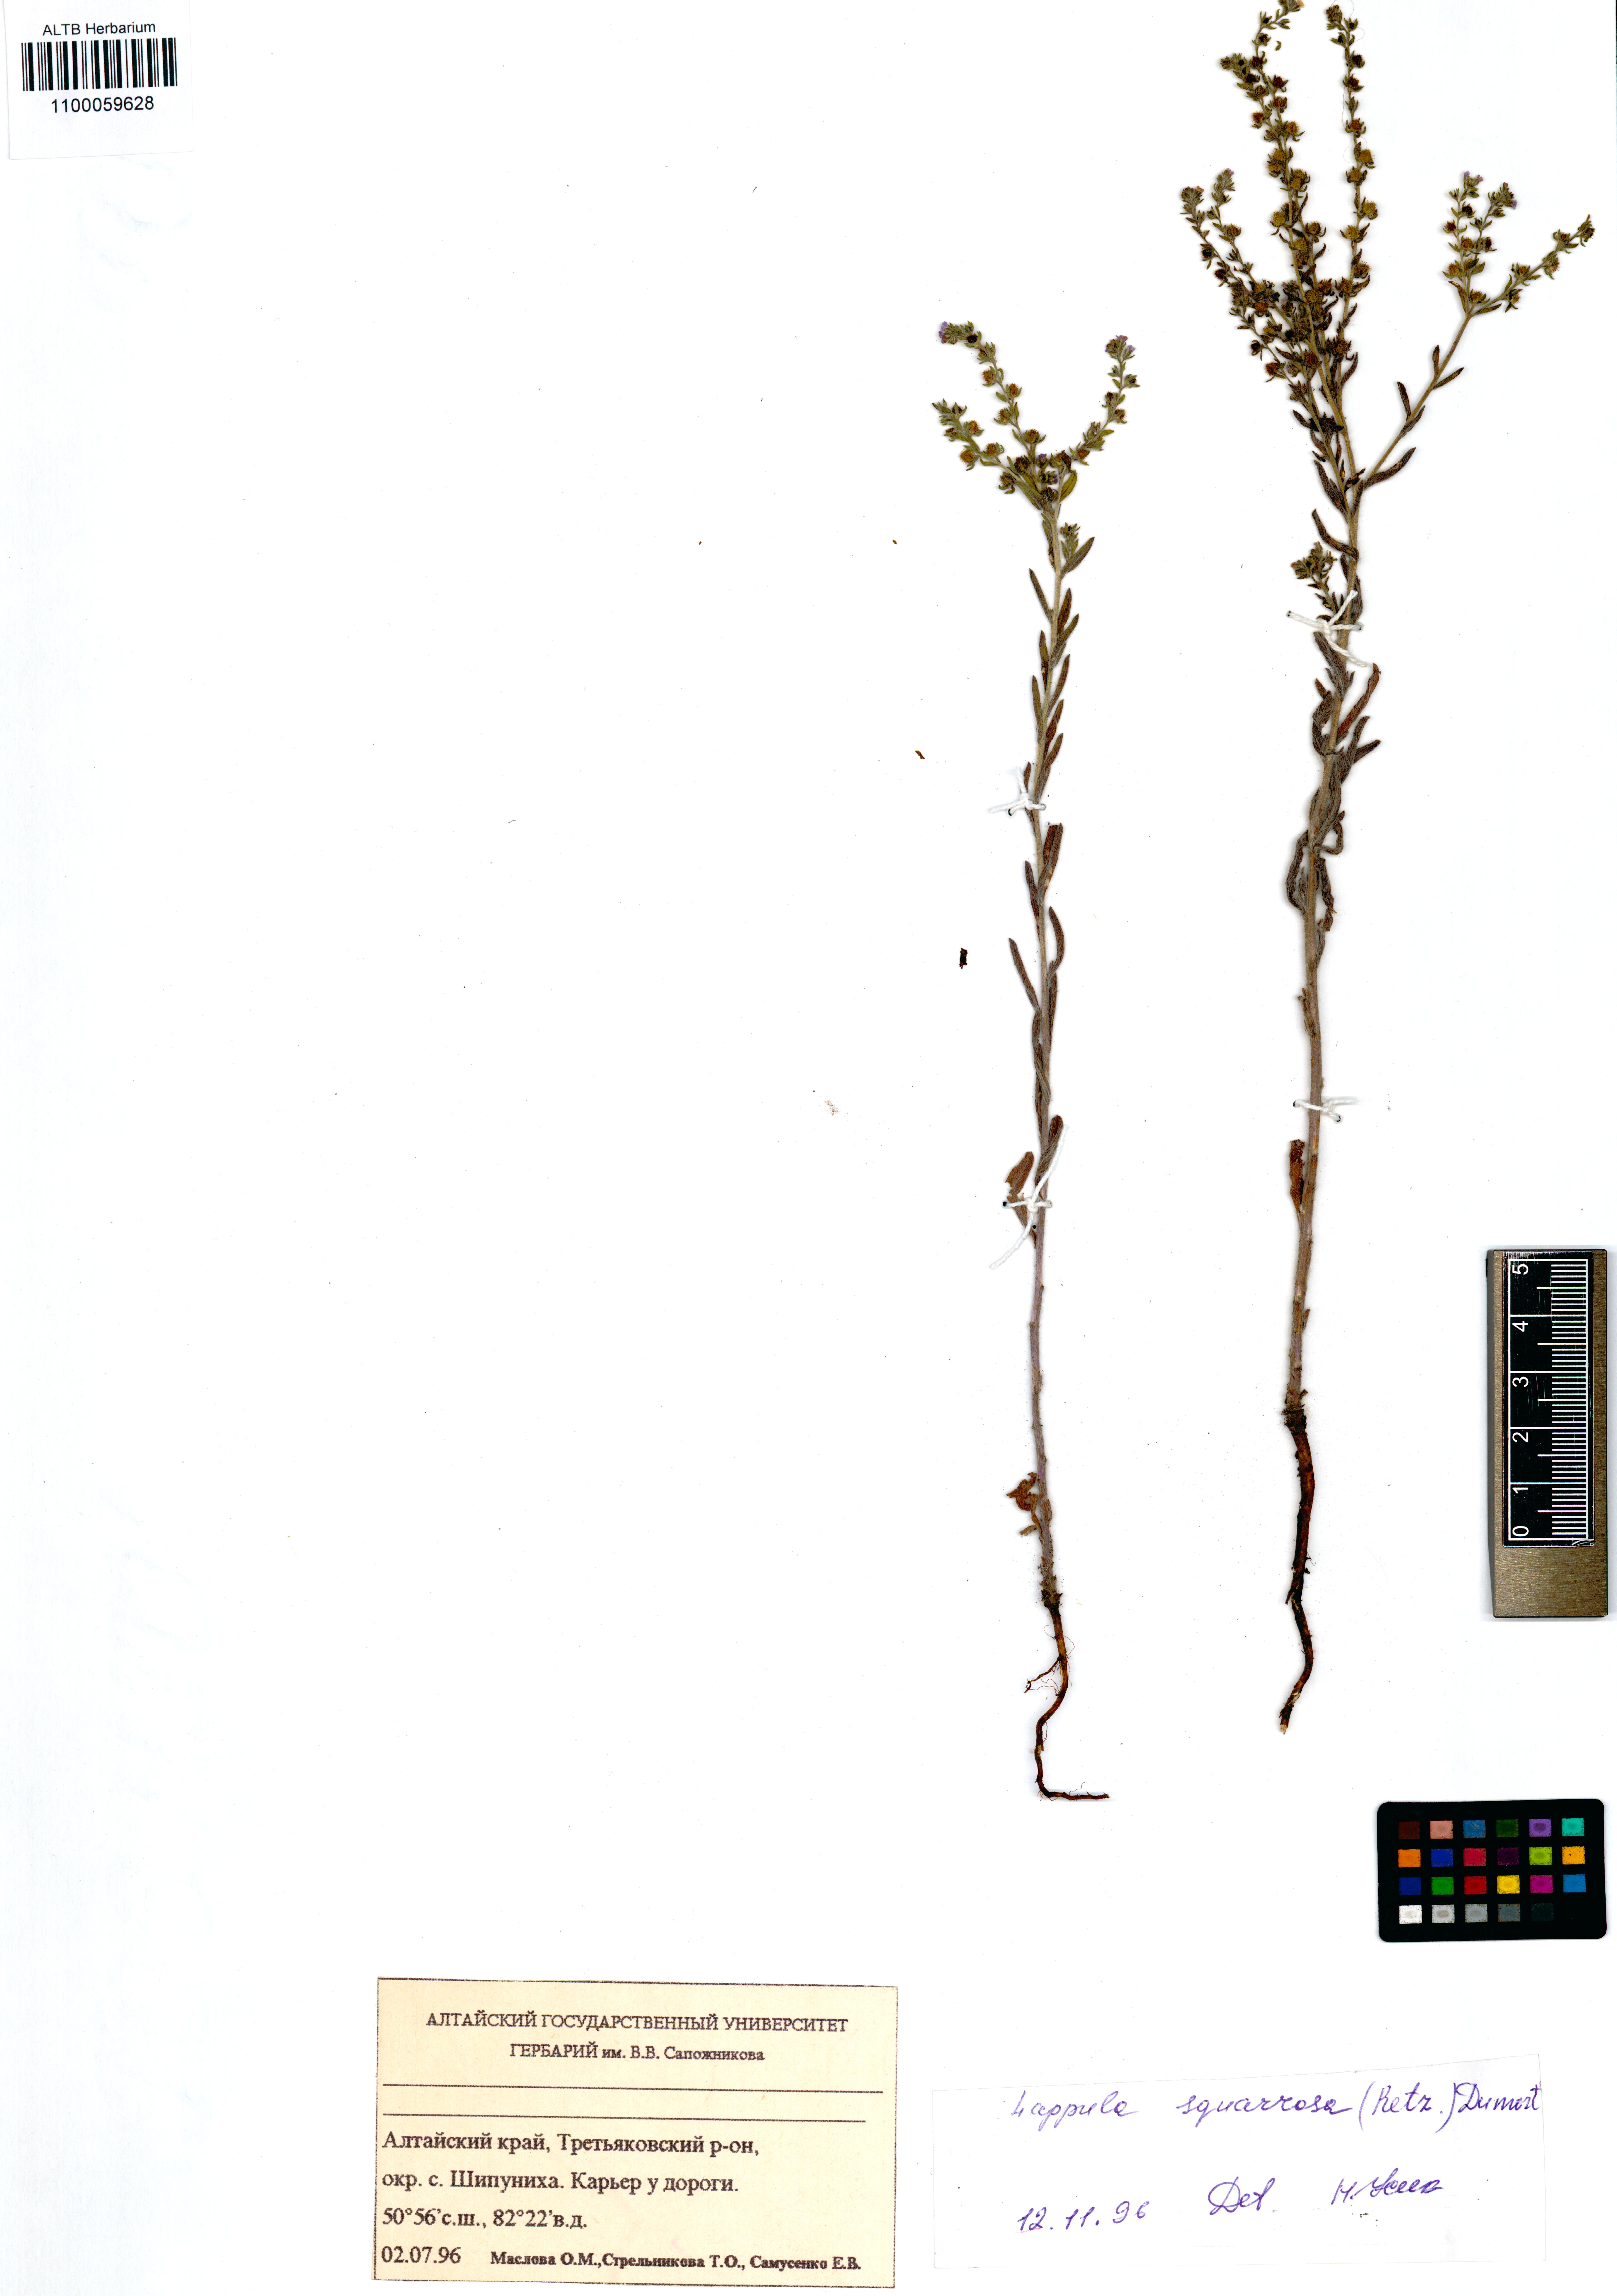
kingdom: Plantae
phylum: Tracheophyta
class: Magnoliopsida
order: Boraginales
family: Boraginaceae
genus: Lappula
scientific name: Lappula squarrosa
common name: European stickseed
